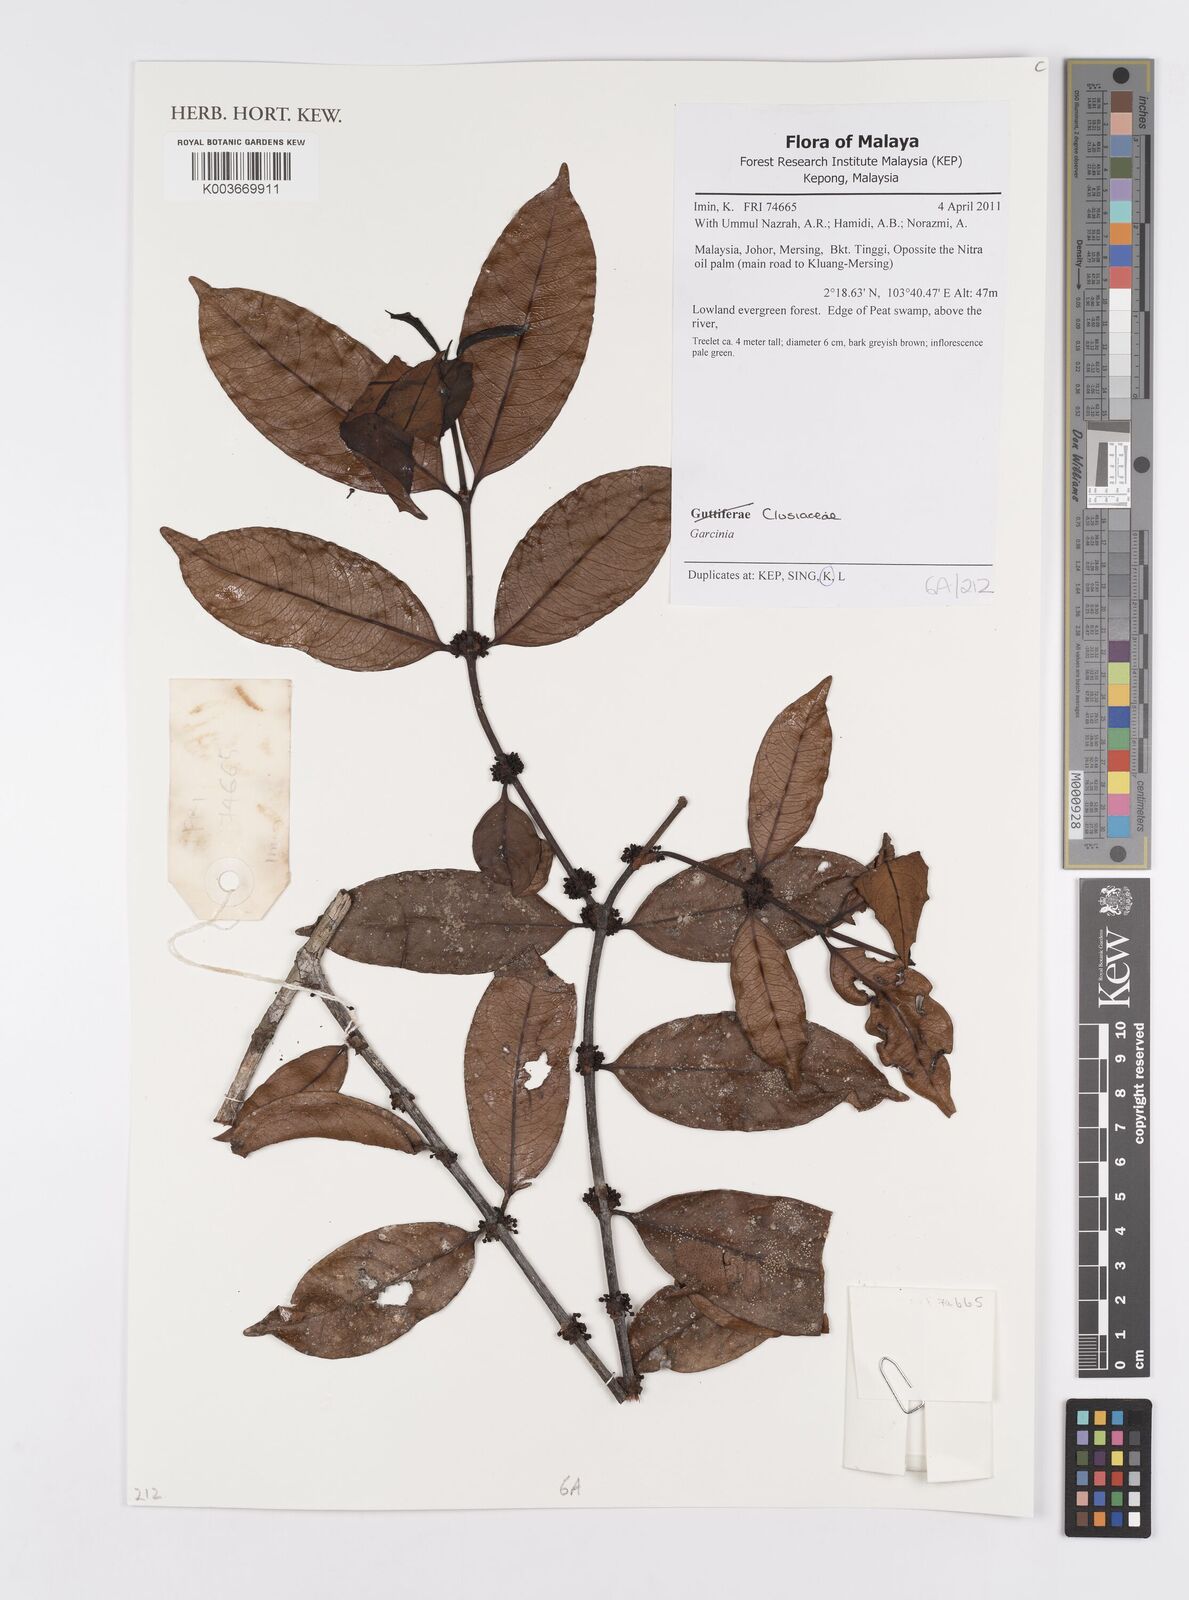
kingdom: Plantae
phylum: Tracheophyta
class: Magnoliopsida
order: Malpighiales
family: Clusiaceae
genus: Garcinia
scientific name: Garcinia
